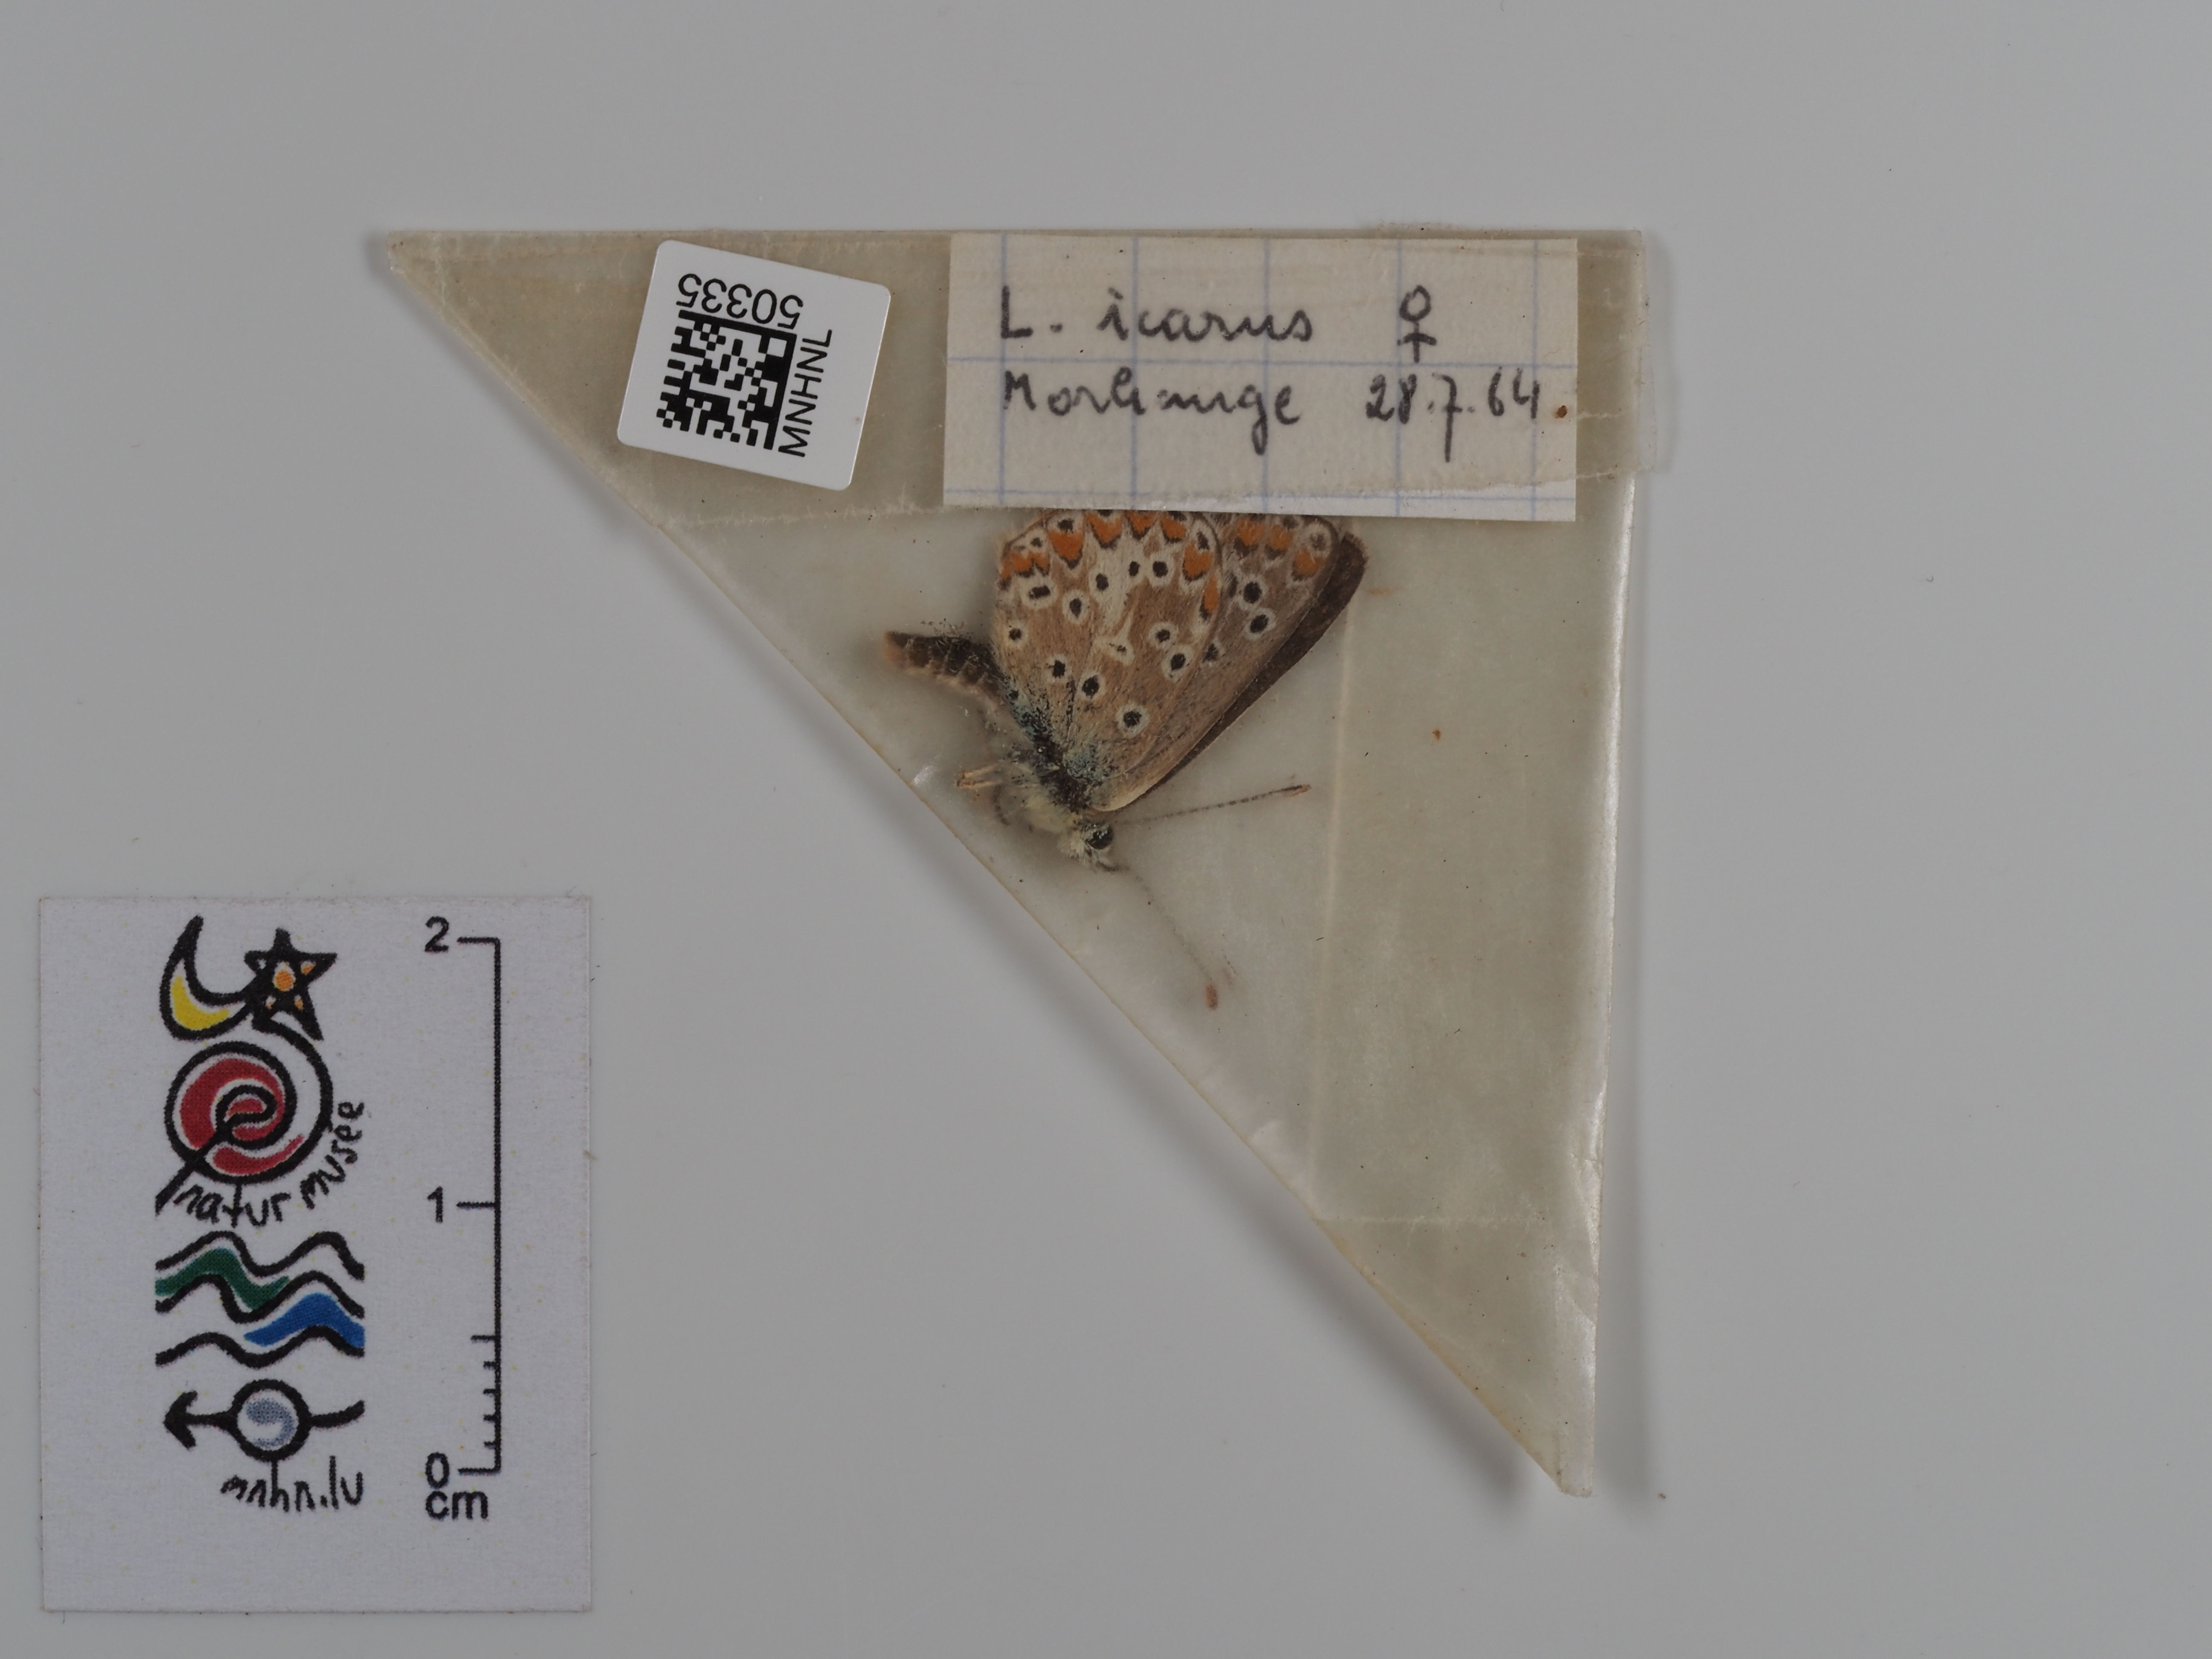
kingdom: Animalia
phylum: Arthropoda
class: Insecta
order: Lepidoptera
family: Lycaenidae
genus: Polyommatus
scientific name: Polyommatus icarus
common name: Common blue
